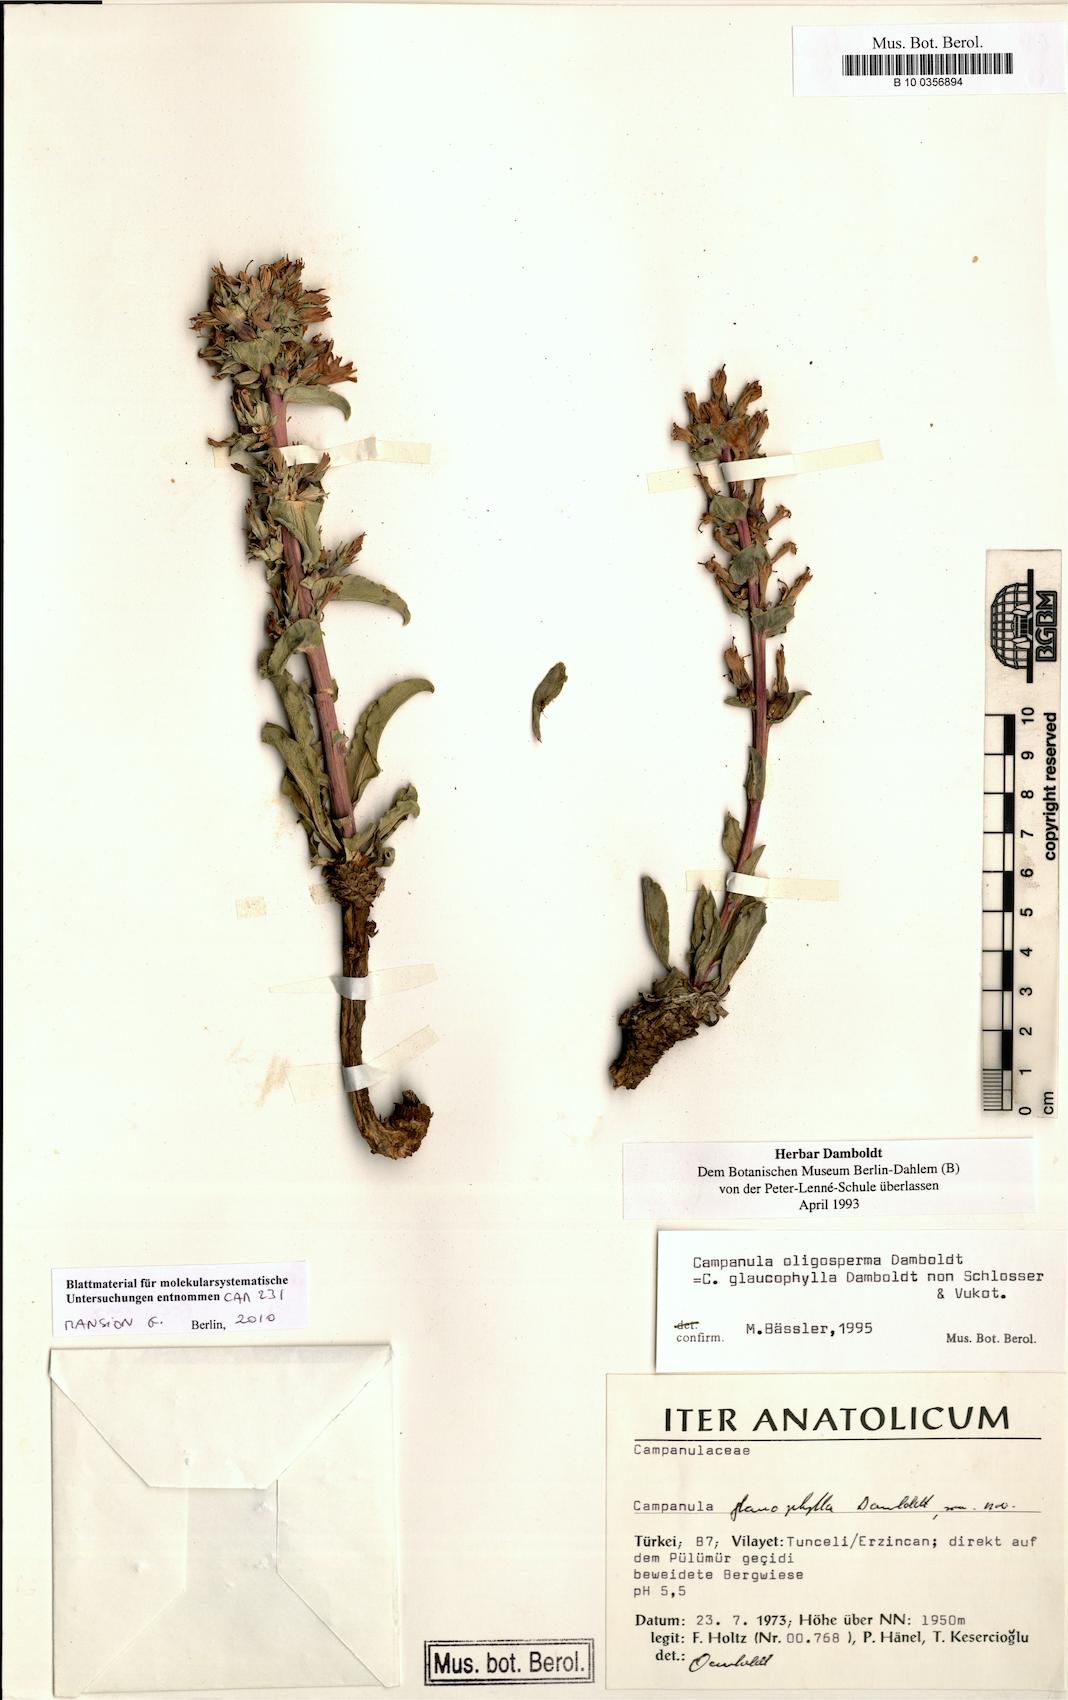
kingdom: Plantae
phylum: Tracheophyta
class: Magnoliopsida
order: Asterales
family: Campanulaceae
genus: Campanula
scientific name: Campanula oligosperma
